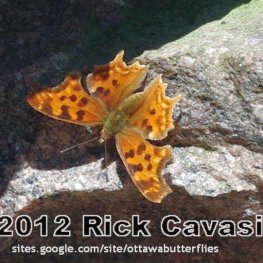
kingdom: Animalia
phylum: Arthropoda
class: Insecta
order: Lepidoptera
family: Nymphalidae
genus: Polygonia
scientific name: Polygonia satyrus
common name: Satyr Comma
